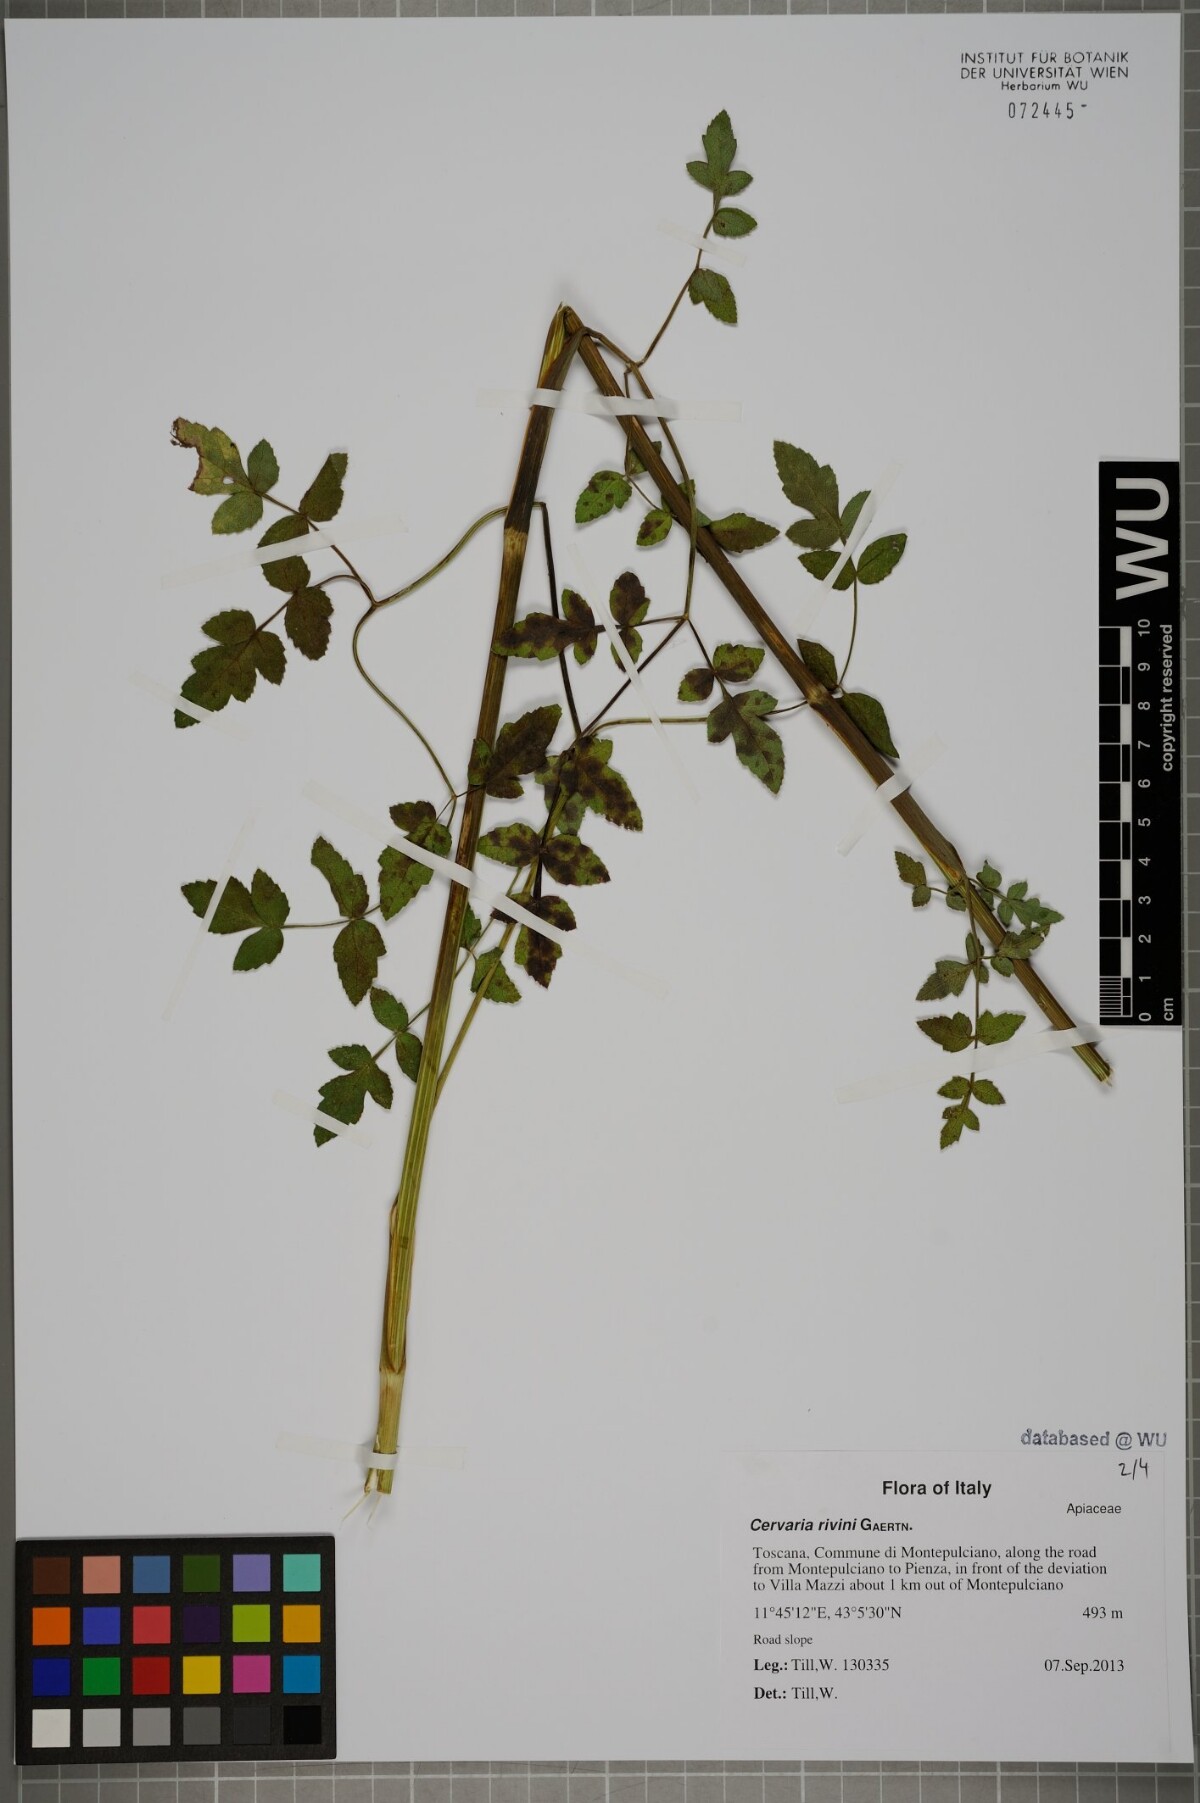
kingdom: Plantae
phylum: Tracheophyta
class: Magnoliopsida
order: Apiales
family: Apiaceae
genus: Cervaria
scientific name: Cervaria rivini
